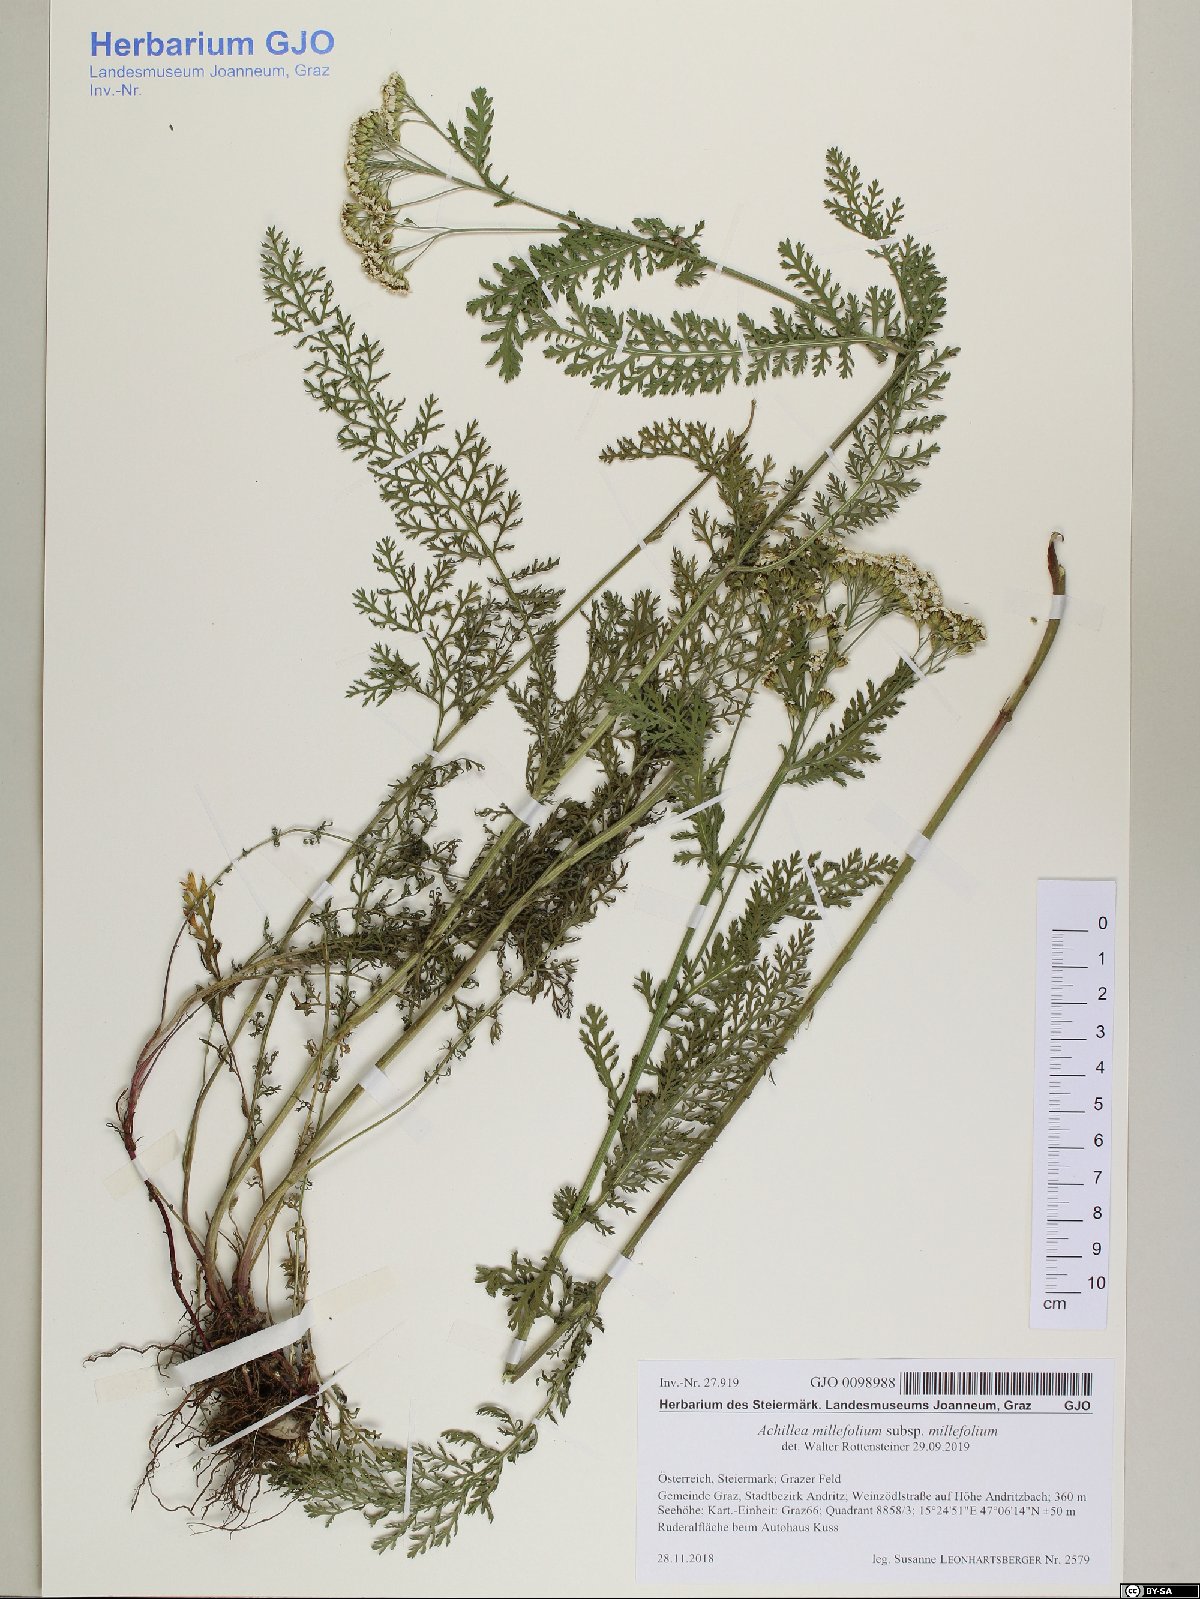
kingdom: Plantae
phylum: Tracheophyta
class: Magnoliopsida
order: Asterales
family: Asteraceae
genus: Achillea
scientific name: Achillea millefolium
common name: Yarrow
